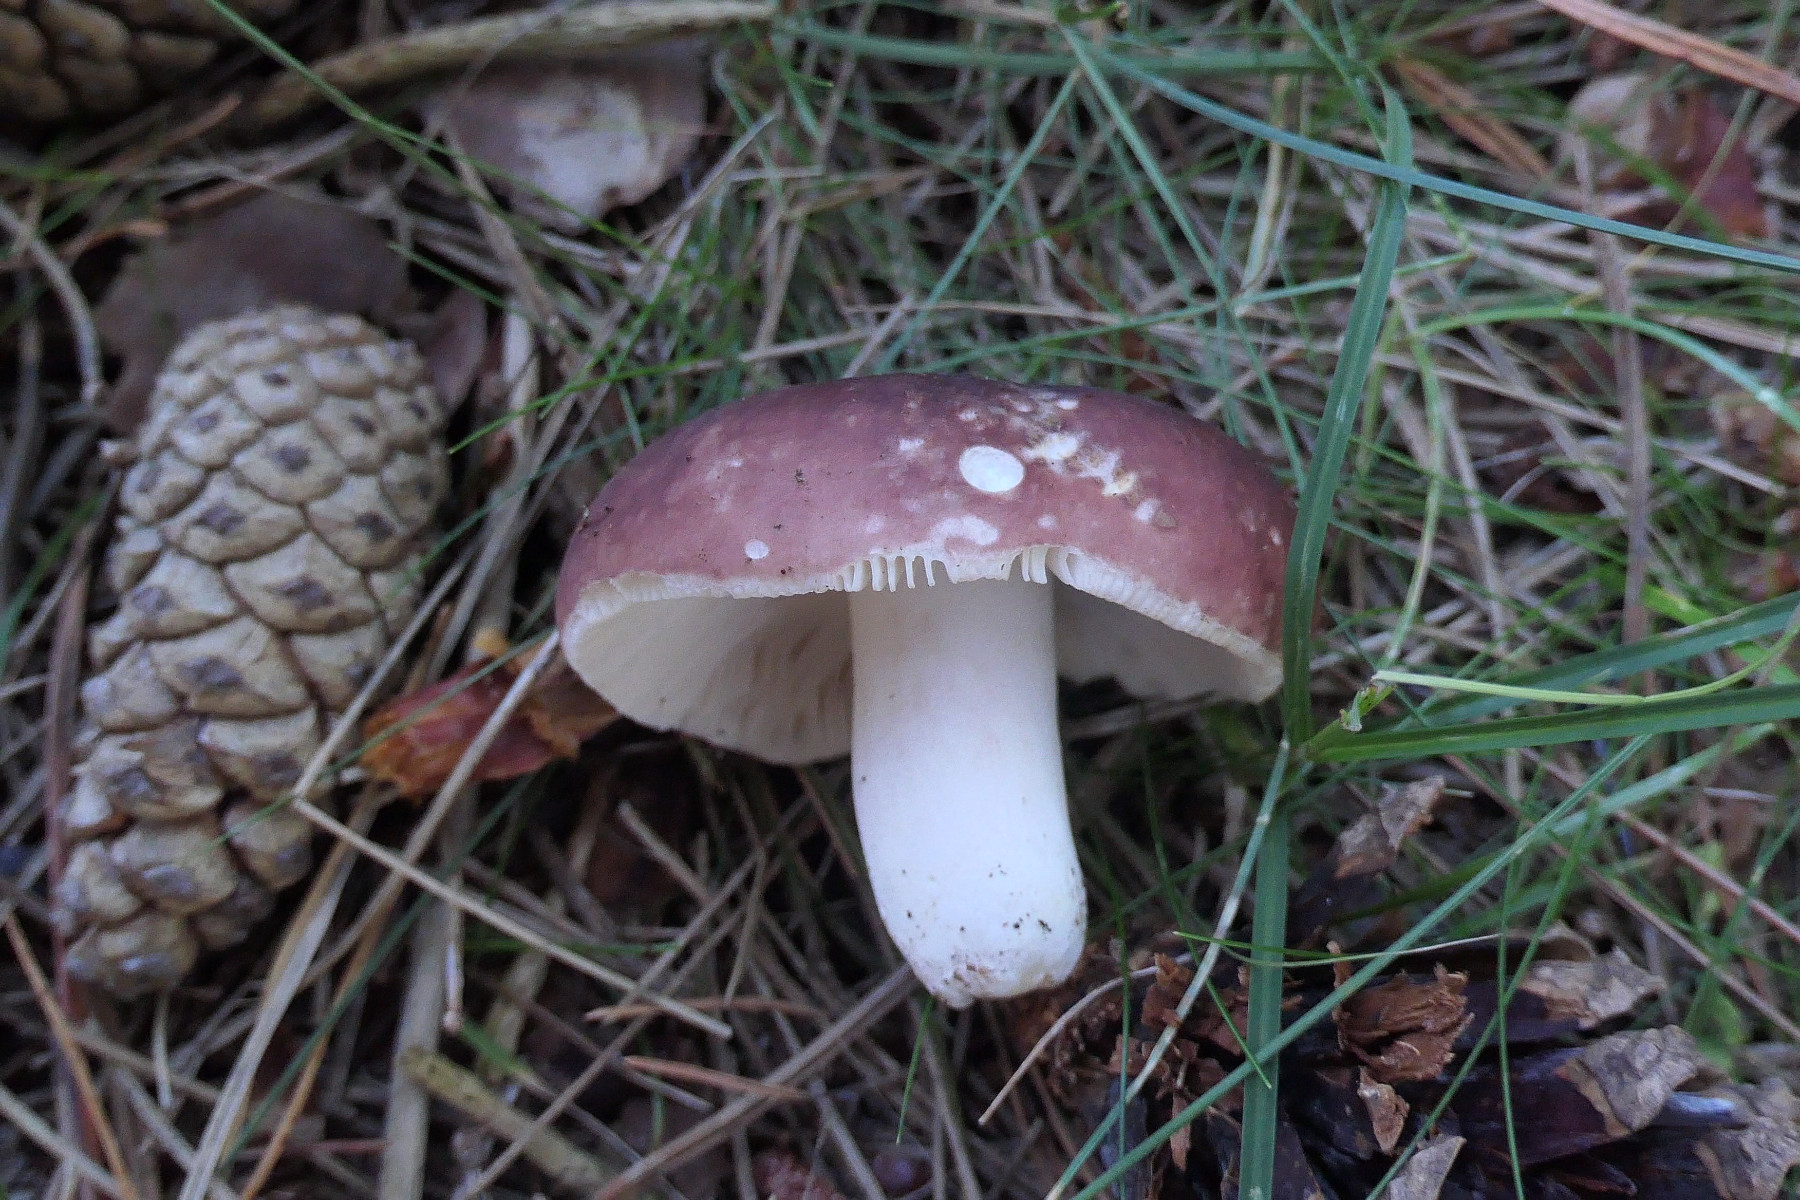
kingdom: Fungi
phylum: Basidiomycota
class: Agaricomycetes
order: Russulales
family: Russulaceae
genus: Russula
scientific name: Russula vesca
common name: spiselig skørhat
